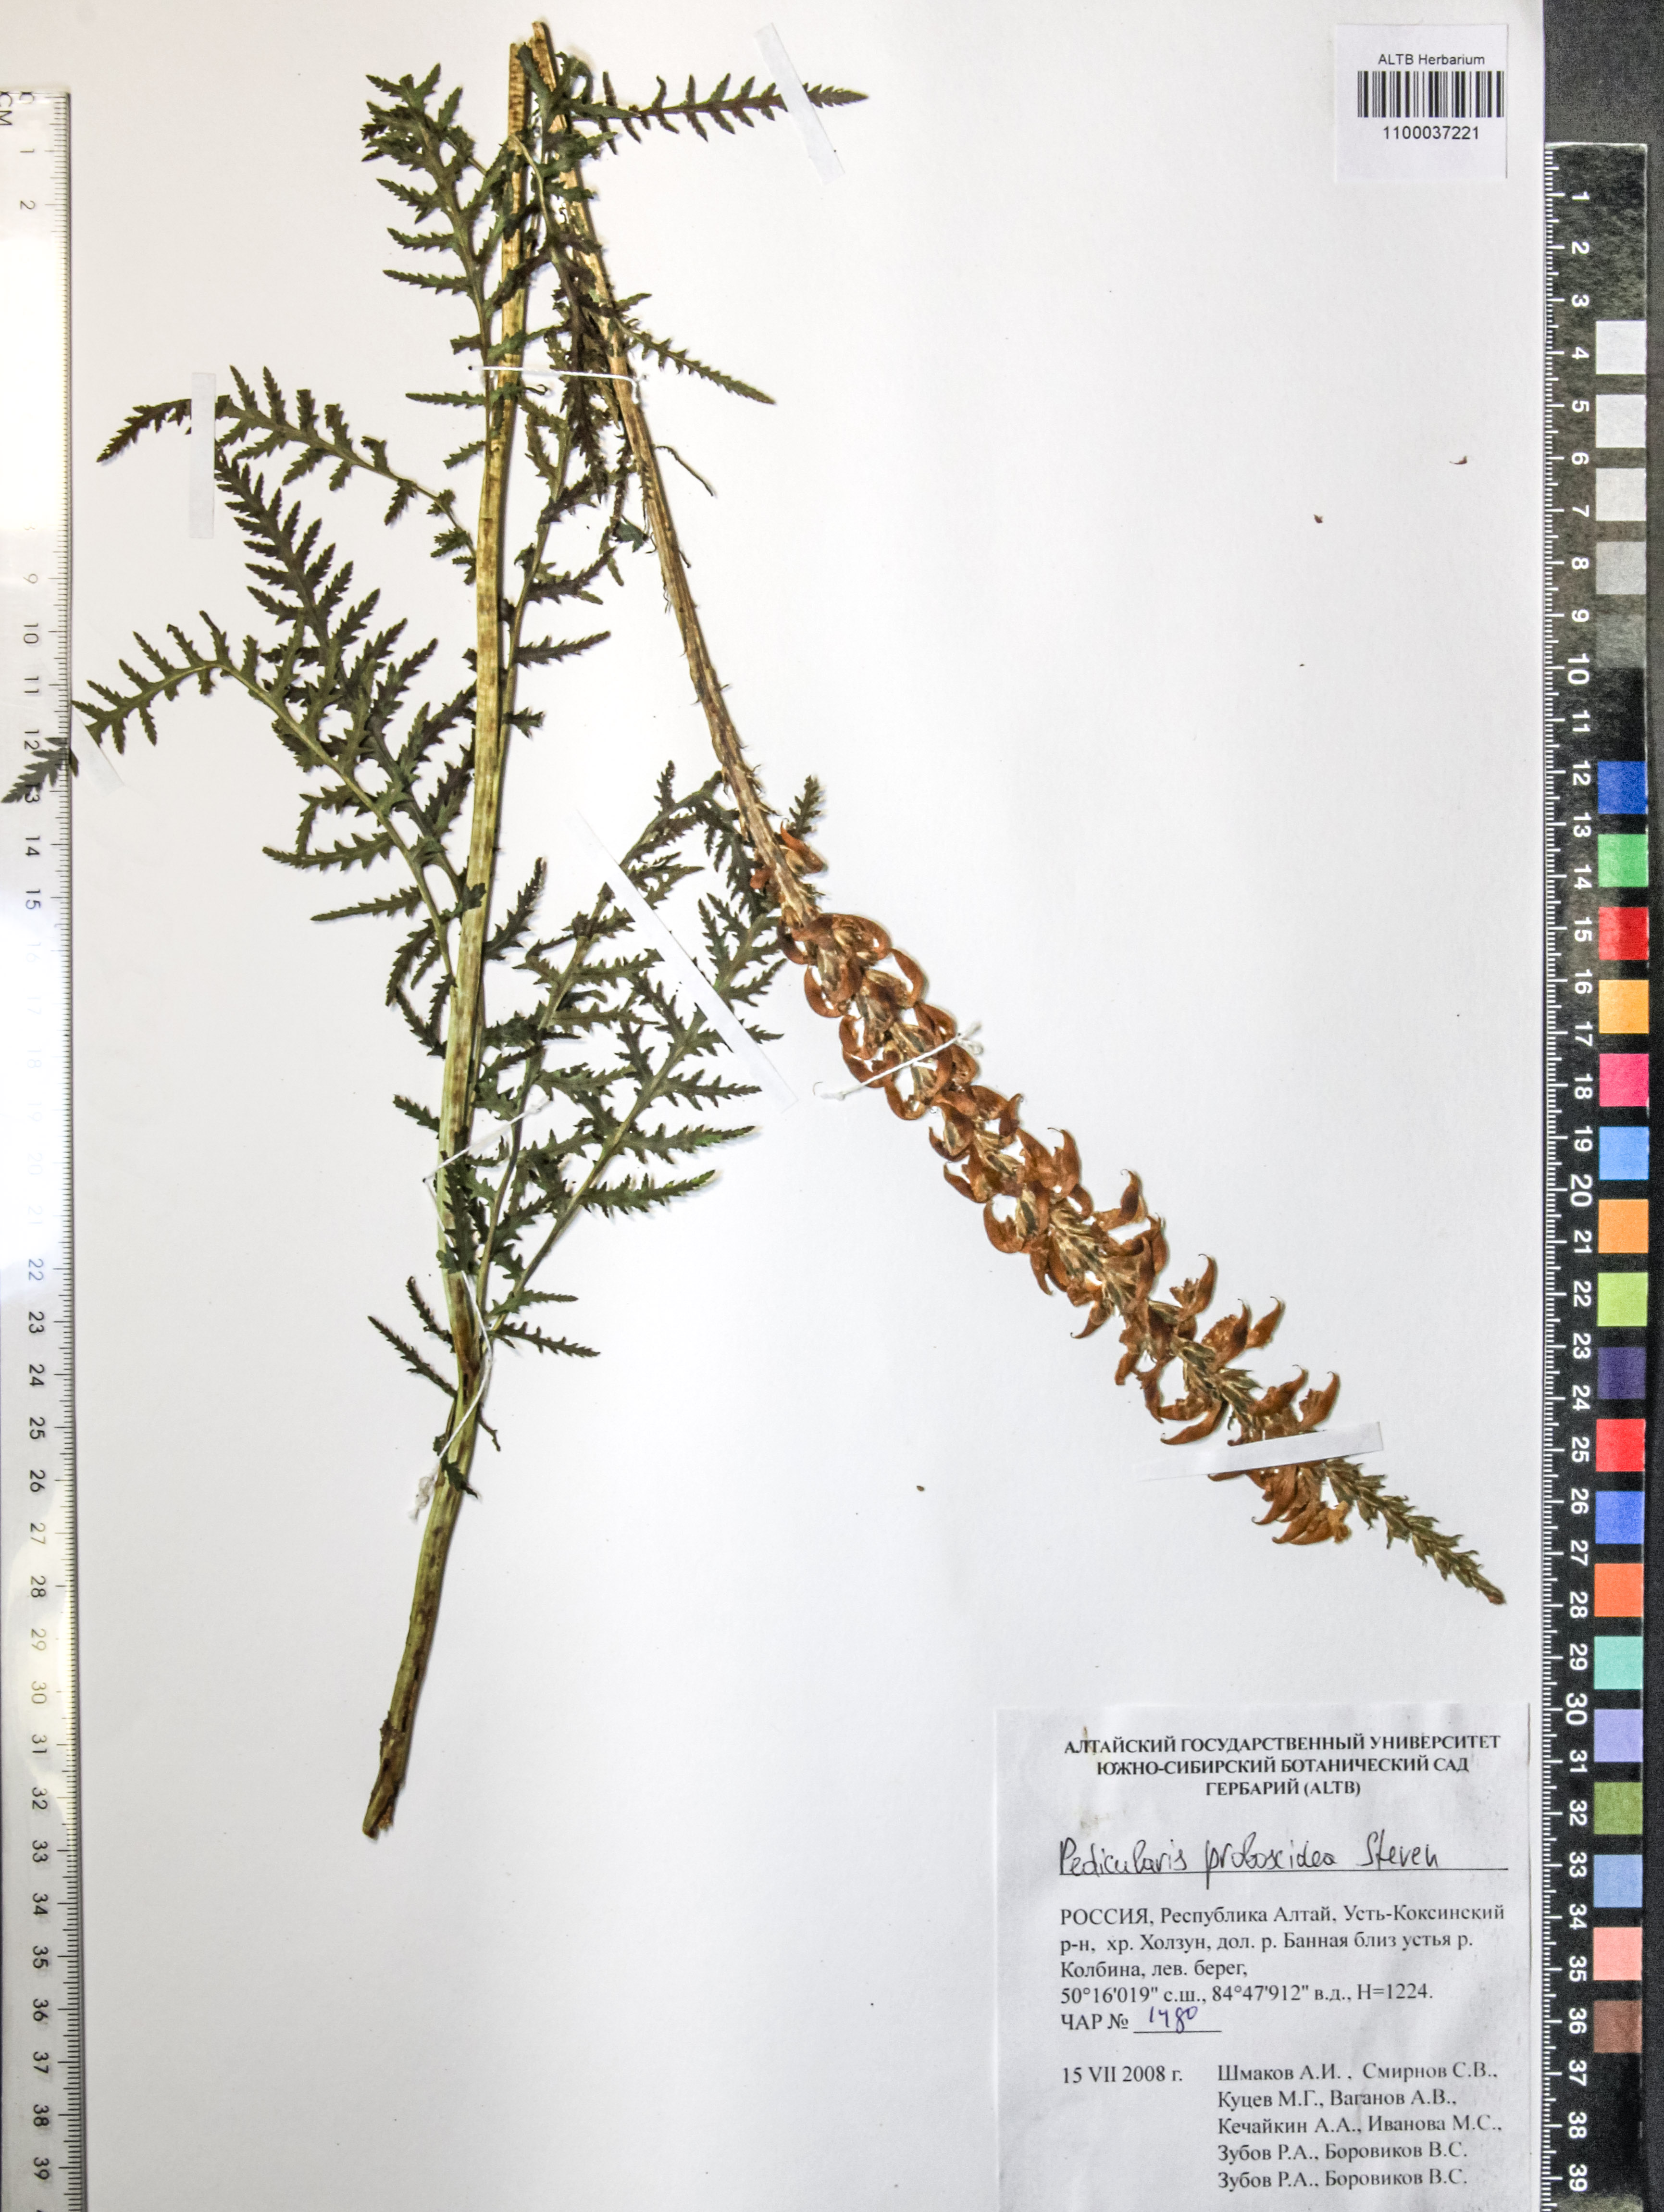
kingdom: Plantae
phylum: Tracheophyta
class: Magnoliopsida
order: Lamiales
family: Orobanchaceae
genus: Pedicularis
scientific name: Pedicularis proboscidea
